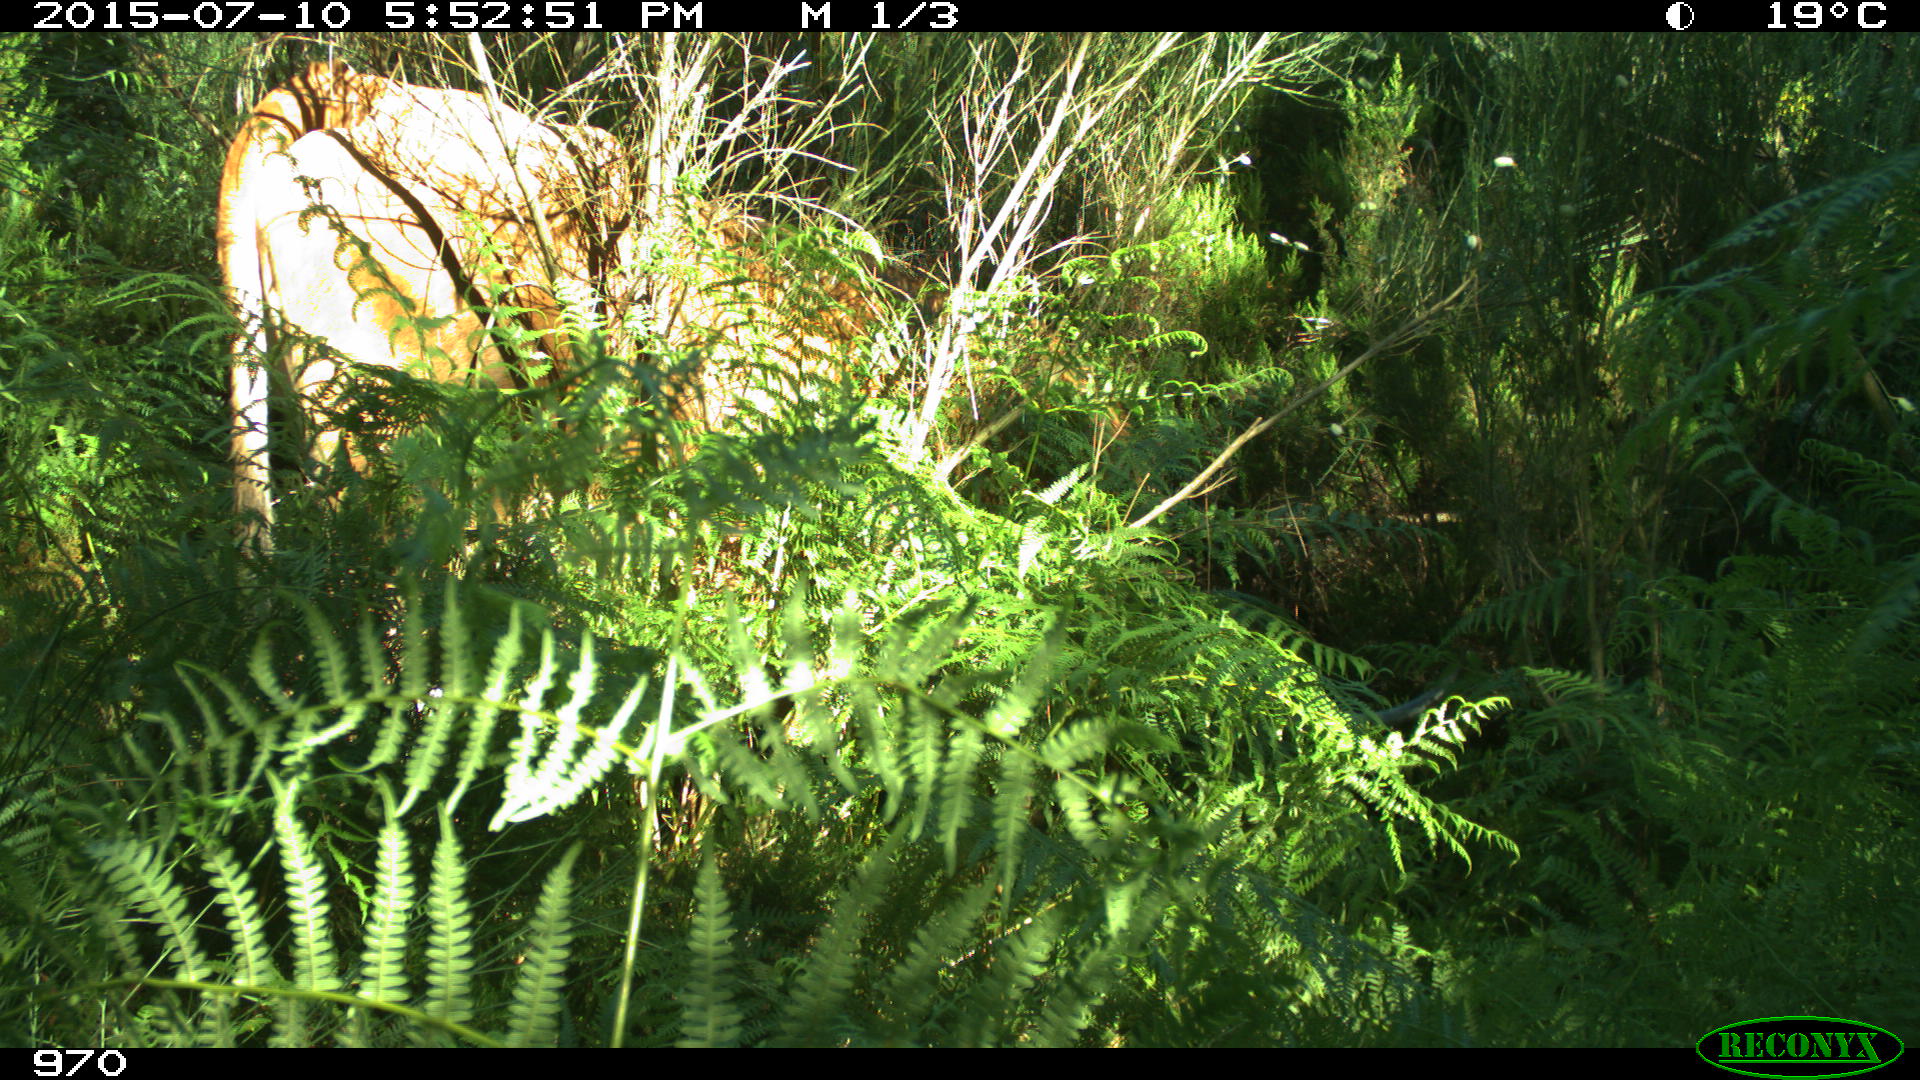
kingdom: Animalia
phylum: Chordata
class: Mammalia
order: Artiodactyla
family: Bovidae
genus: Bos
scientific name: Bos taurus
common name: Domesticated cattle
